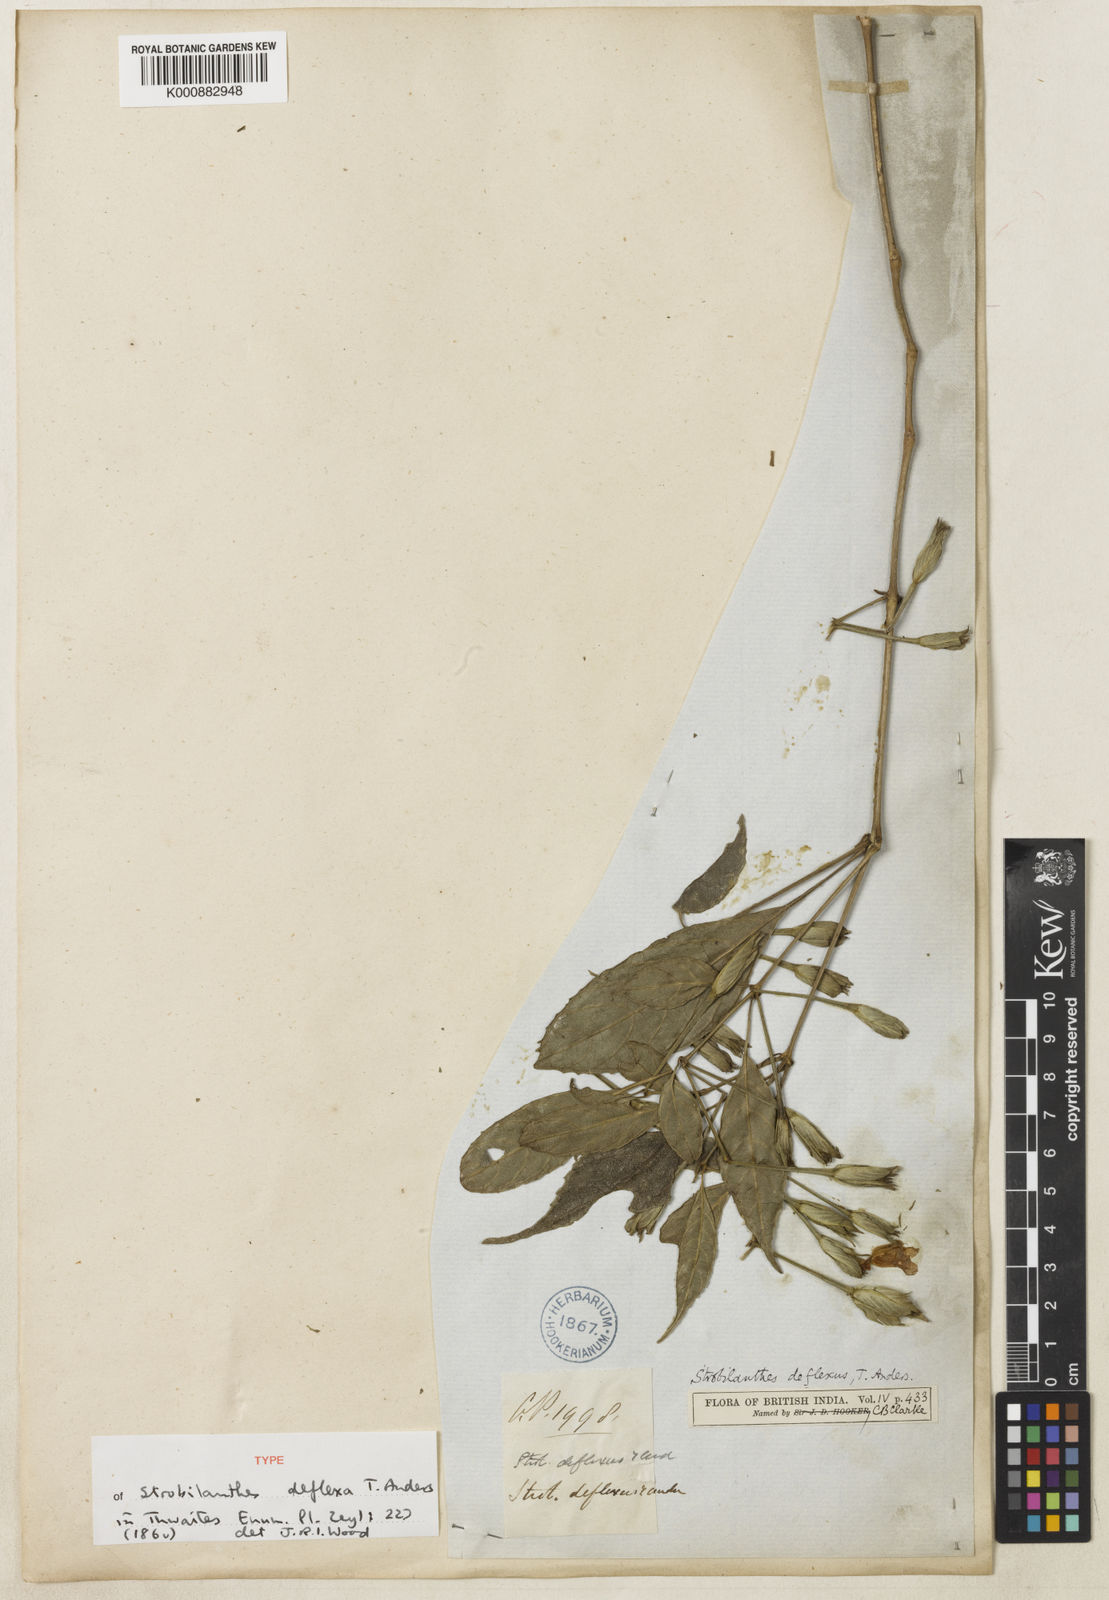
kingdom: Plantae
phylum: Tracheophyta
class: Magnoliopsida
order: Lamiales
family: Acanthaceae
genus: Strobilanthes
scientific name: Strobilanthes deflexa
